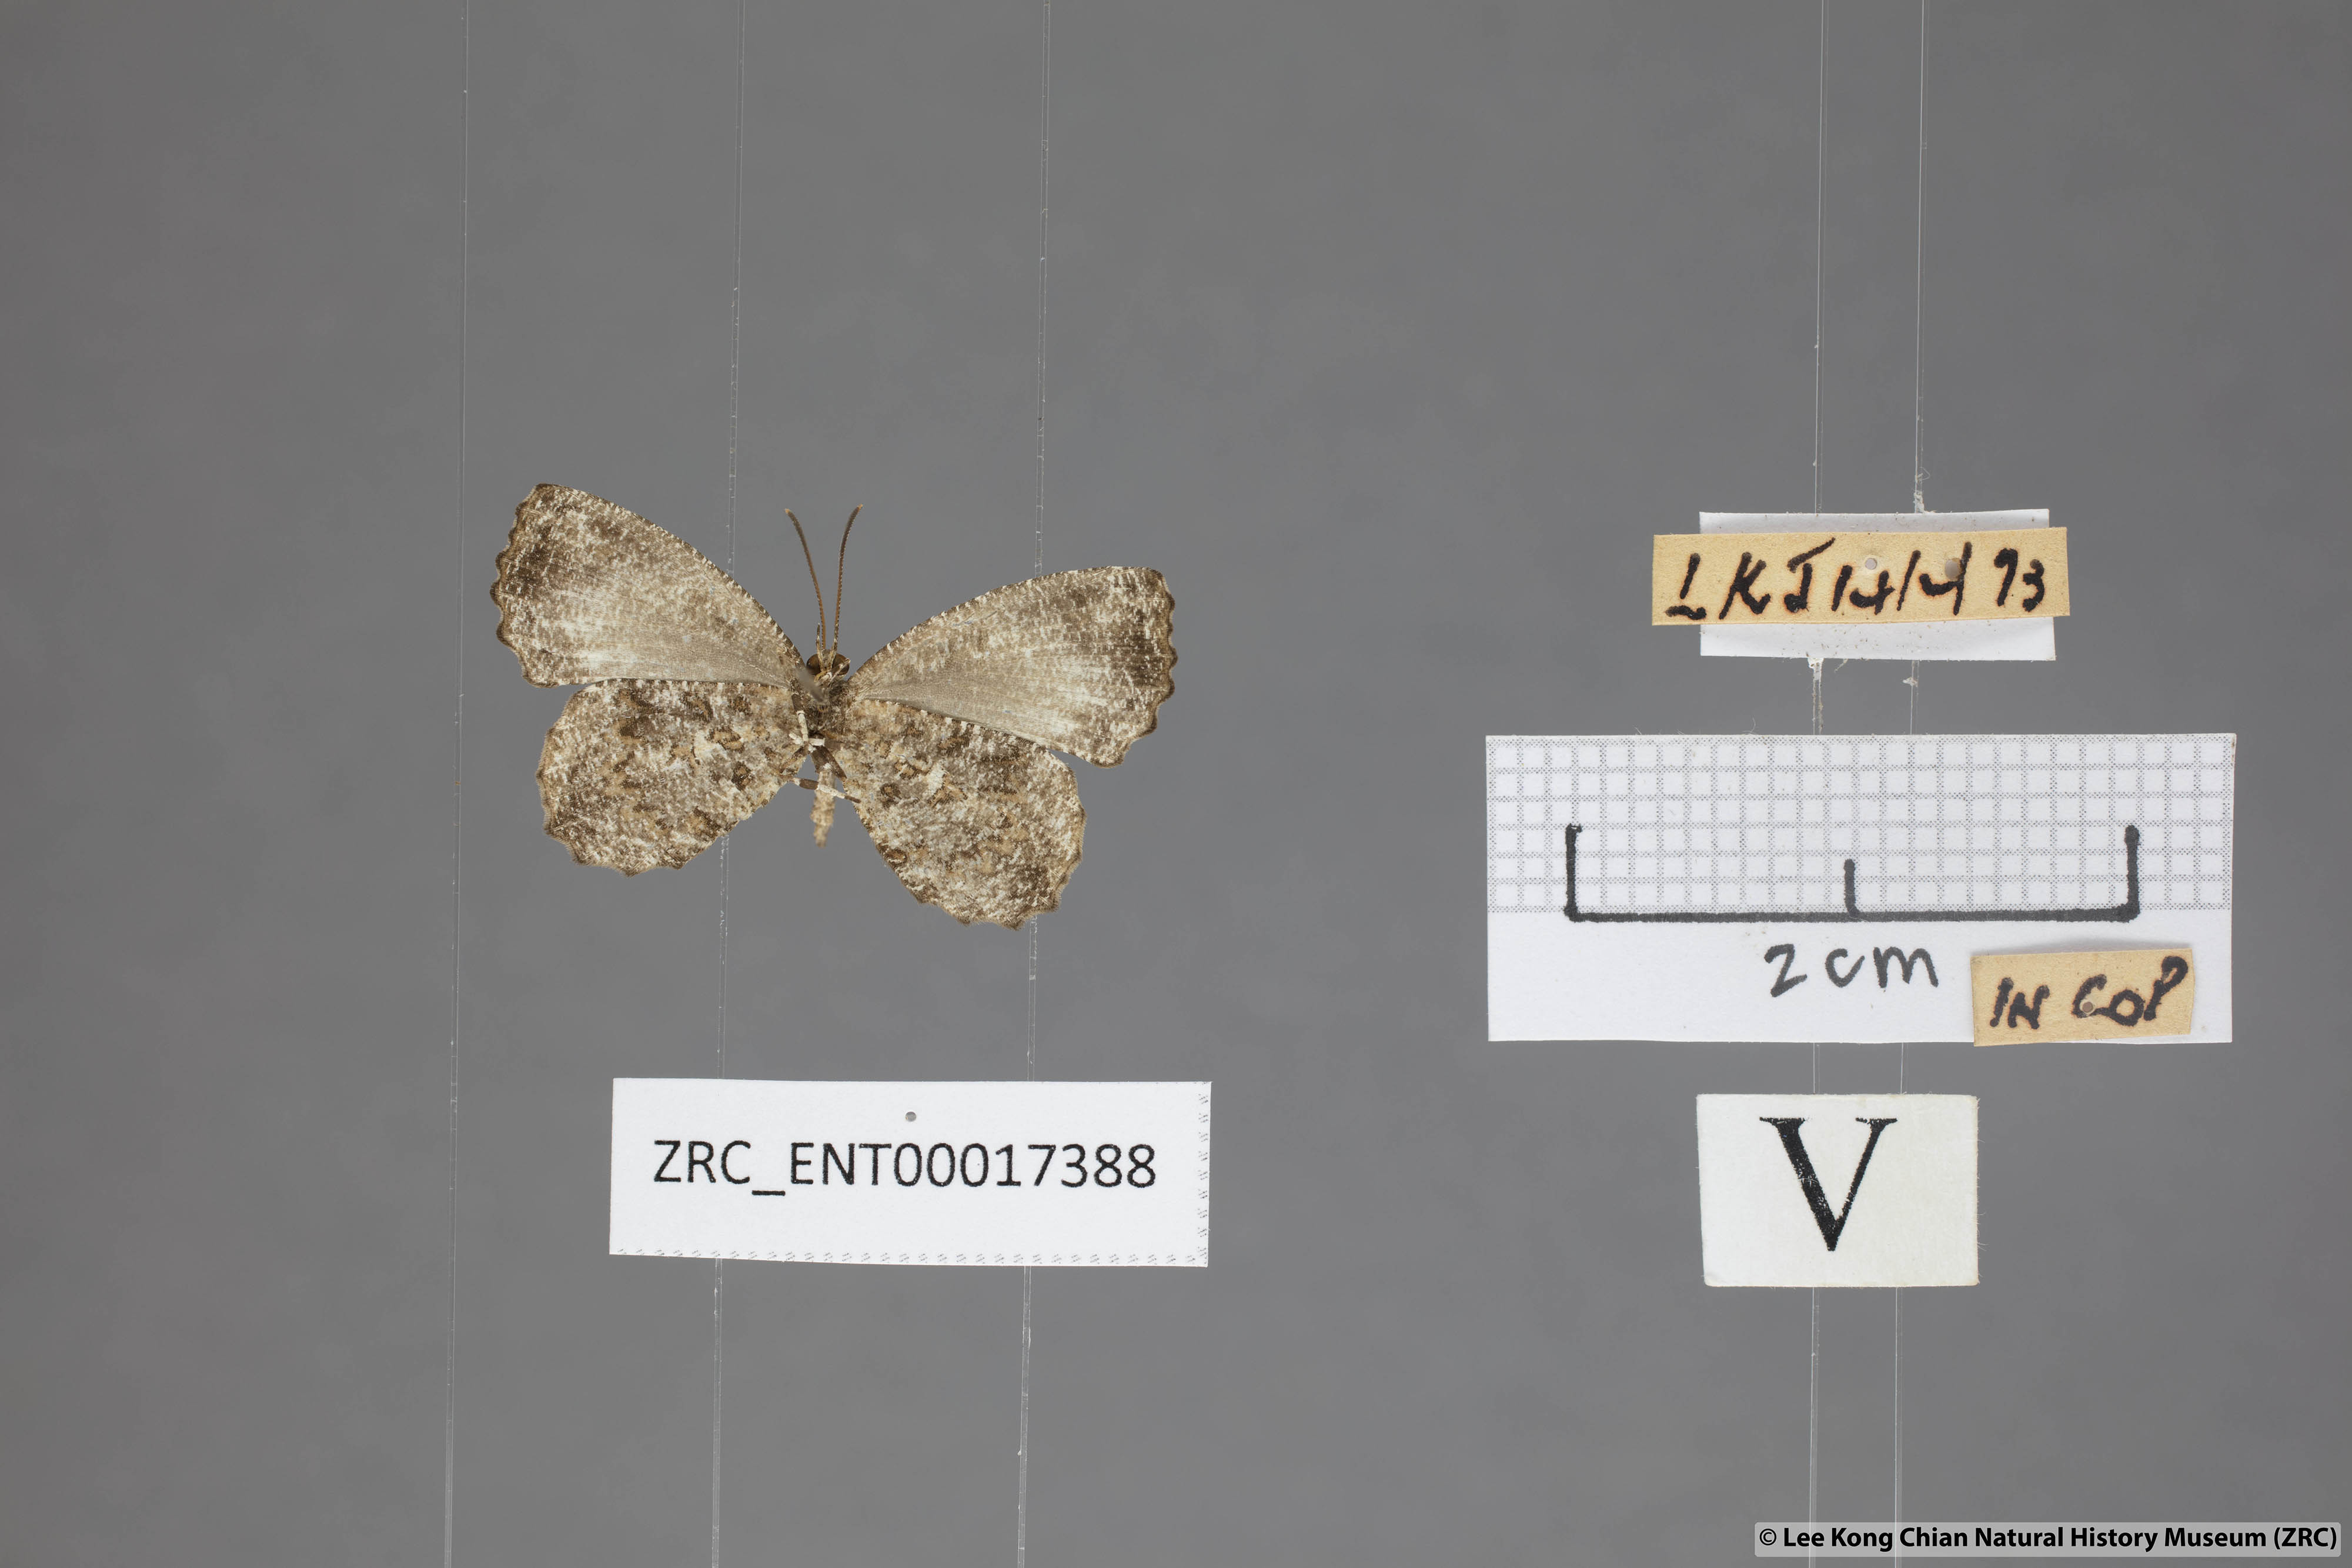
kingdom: Animalia
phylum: Arthropoda
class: Insecta
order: Lepidoptera
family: Lycaenidae
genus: Logania
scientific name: Logania marmorata
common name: Pale mottle
